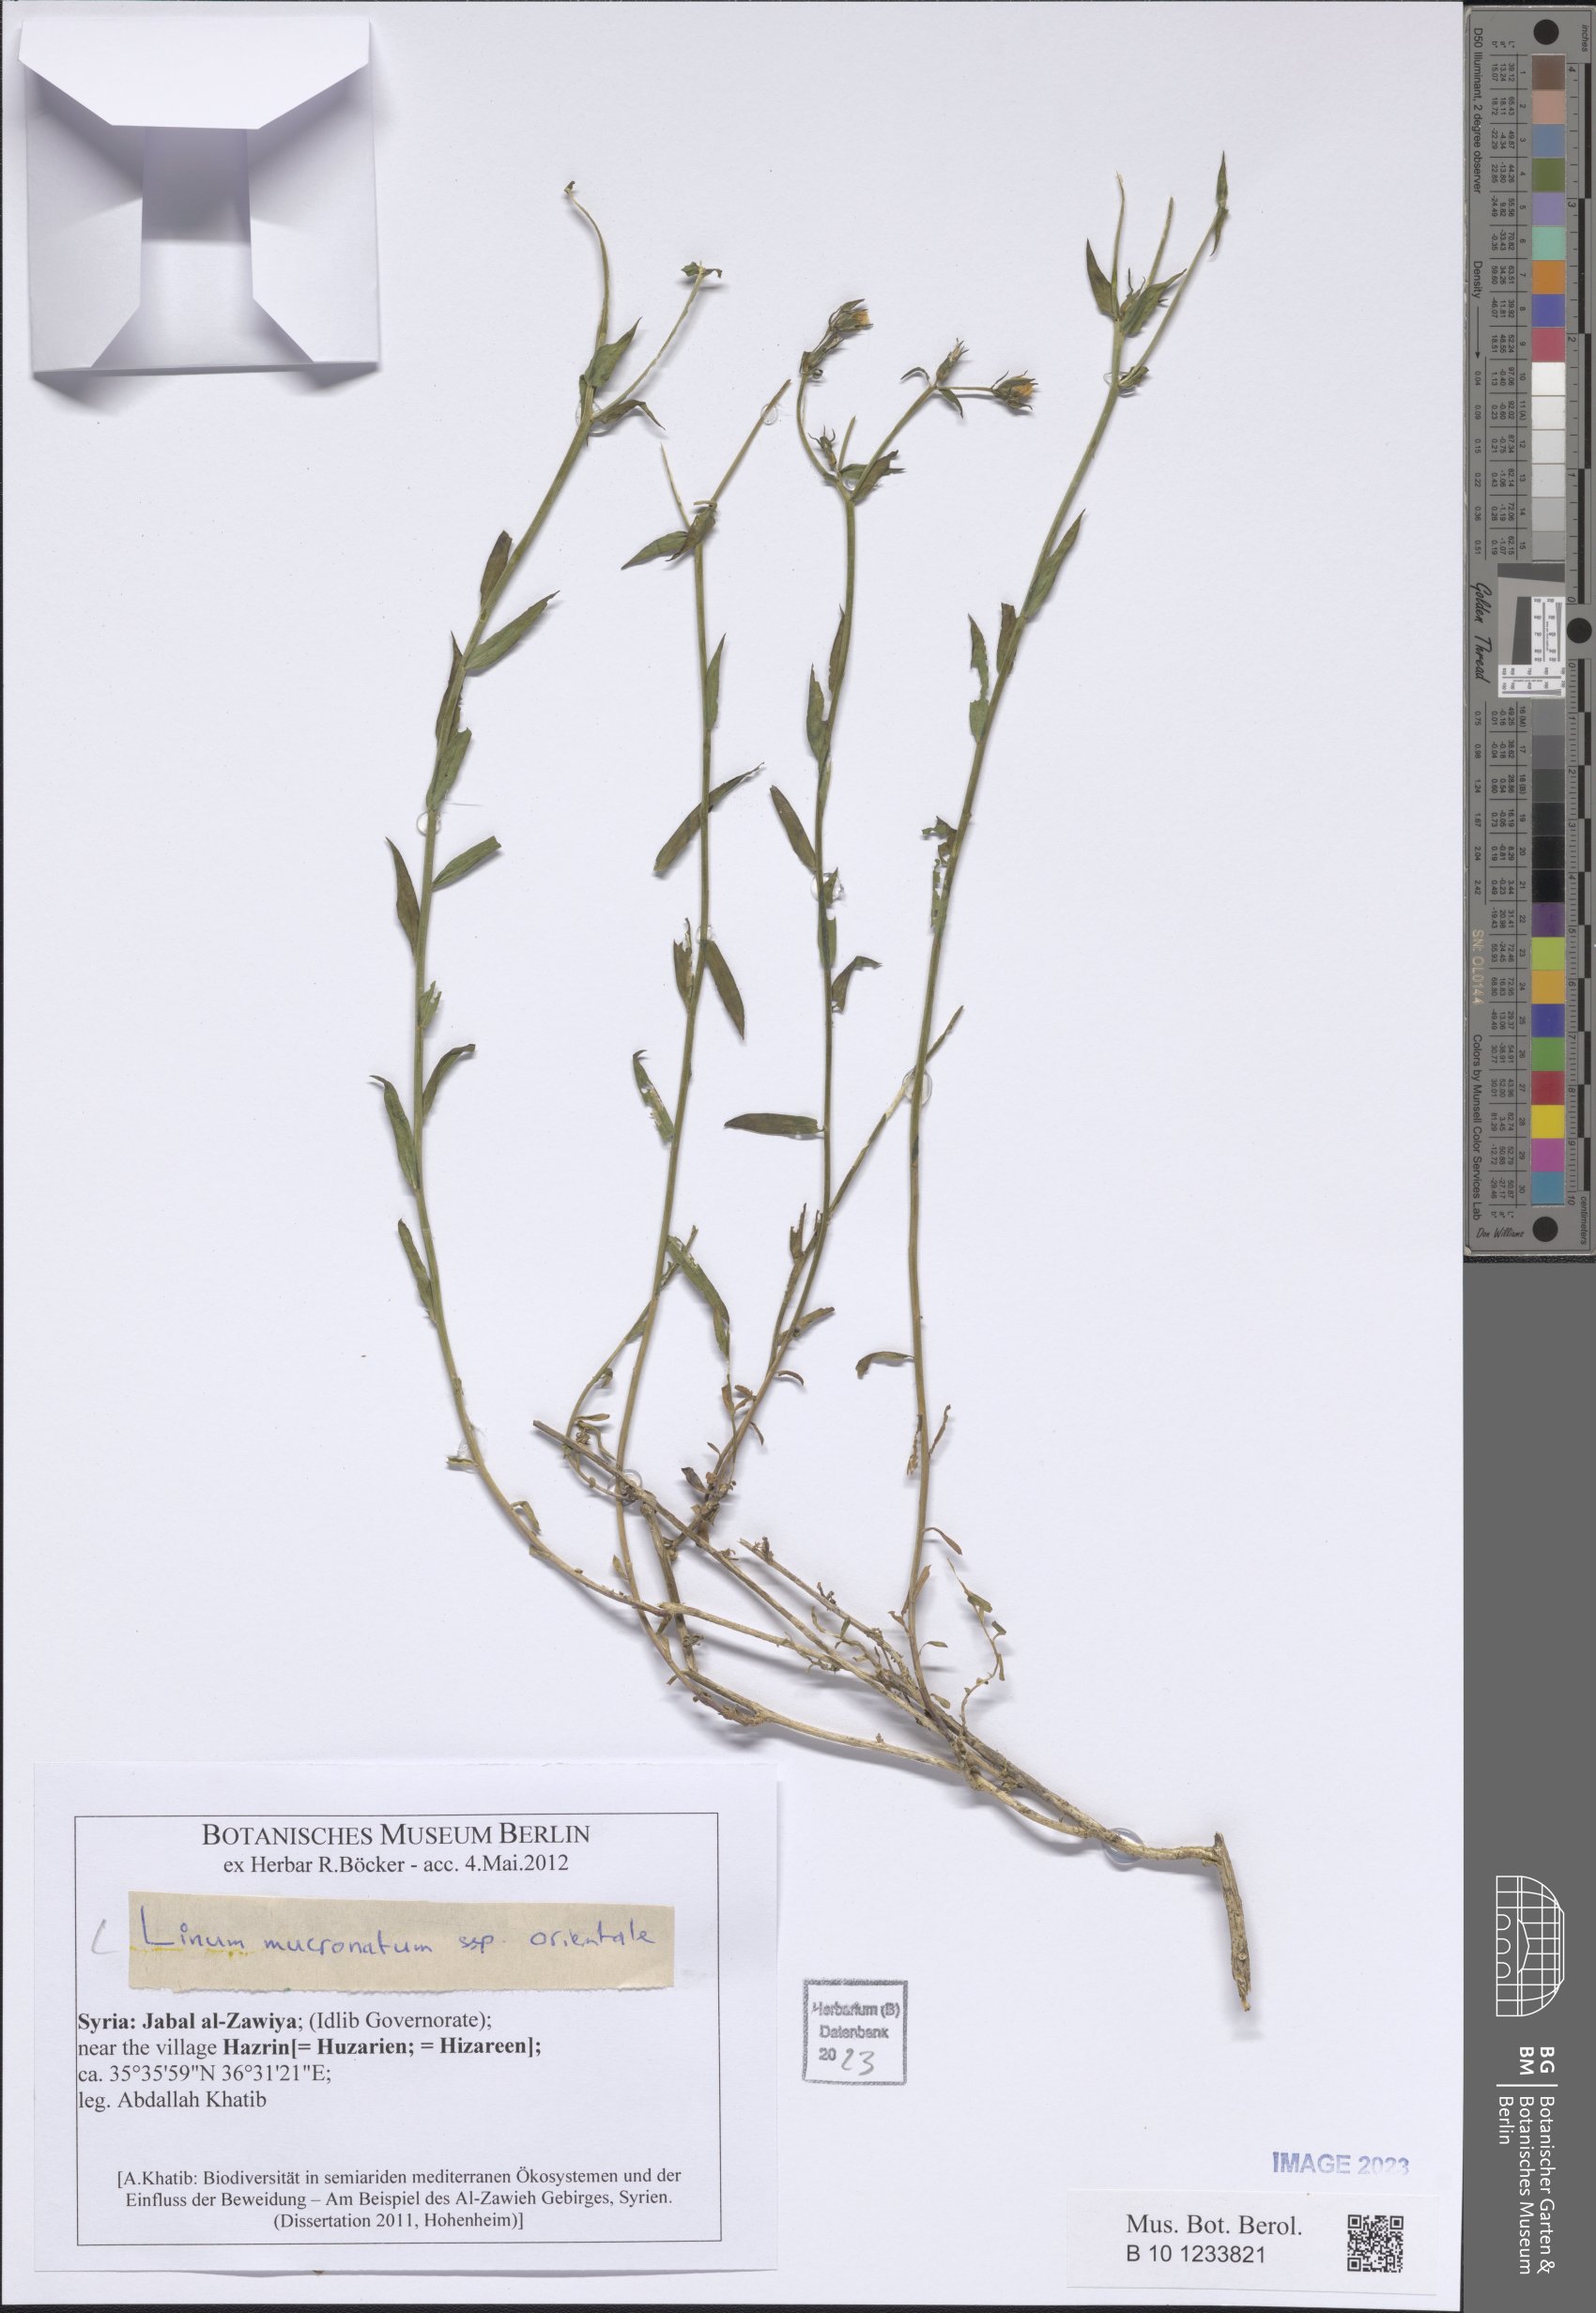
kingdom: Plantae
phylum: Tracheophyta
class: Magnoliopsida
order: Malpighiales
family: Linaceae
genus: Linum
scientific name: Linum mucronatum
